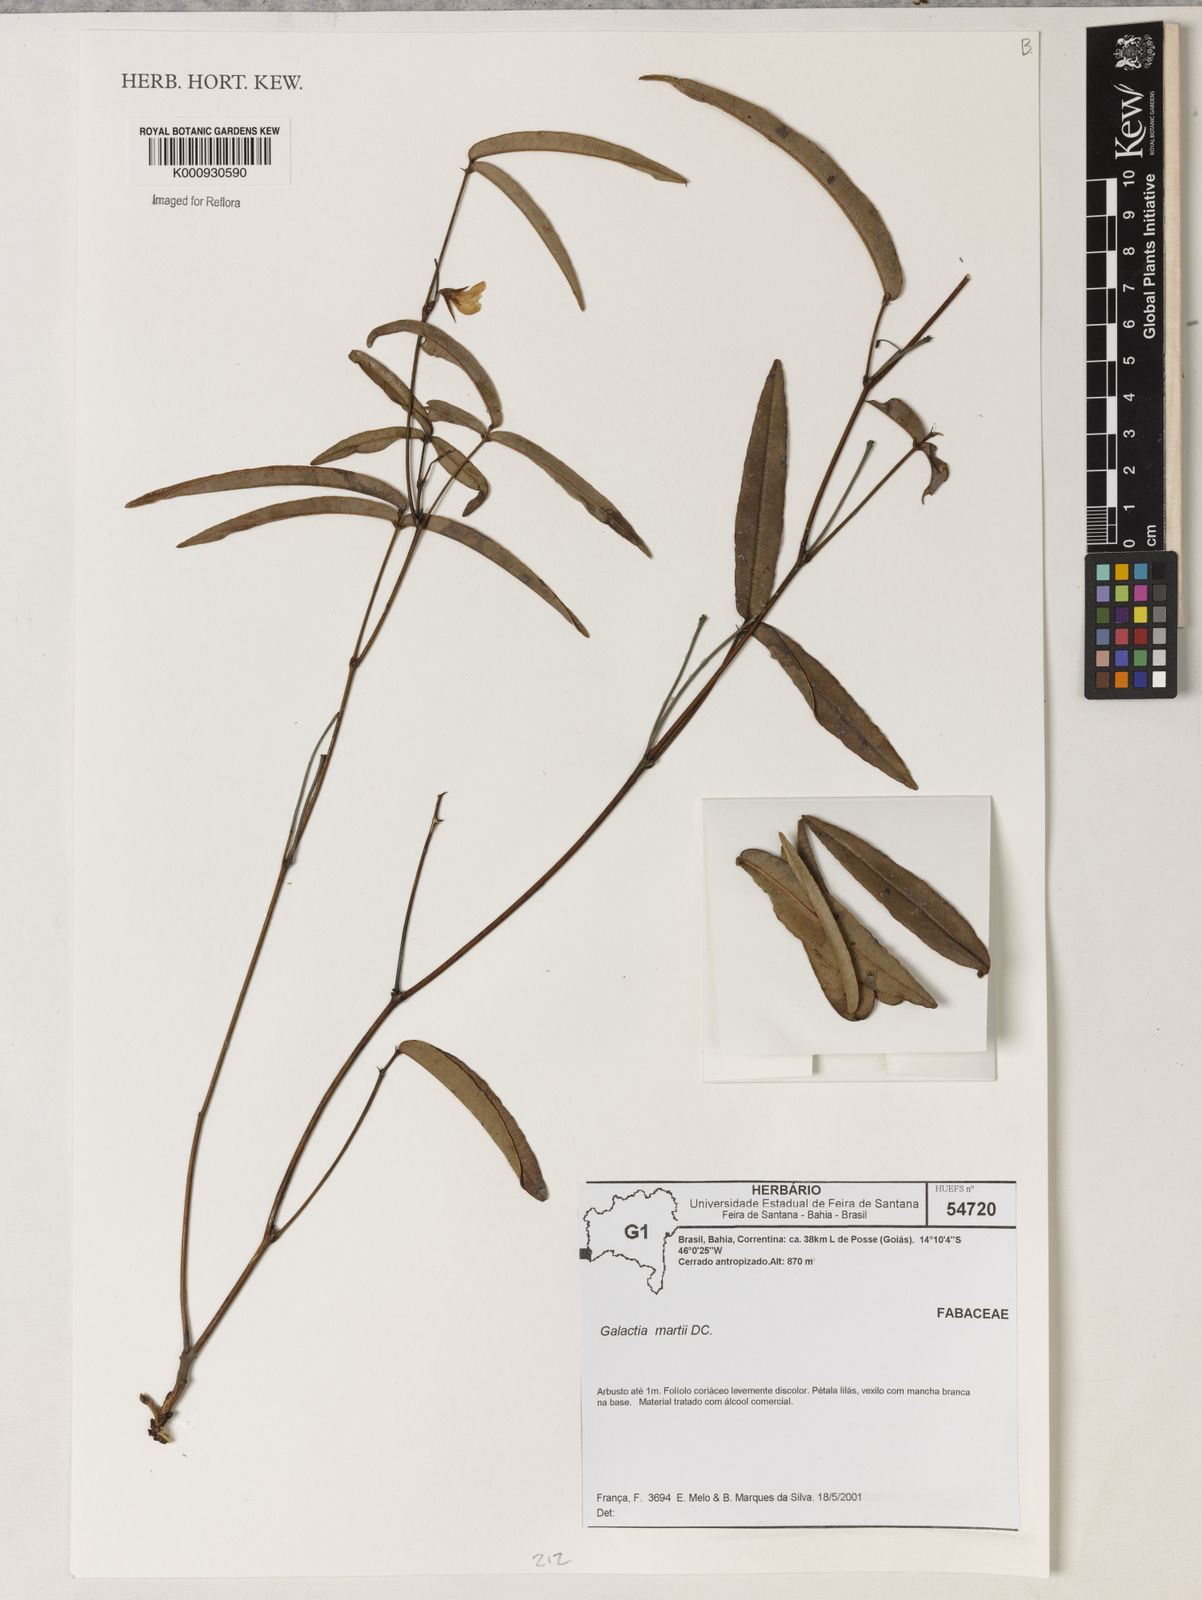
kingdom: Plantae
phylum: Tracheophyta
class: Magnoliopsida
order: Fabales
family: Fabaceae
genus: Betencourtia
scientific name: Betencourtia martii
